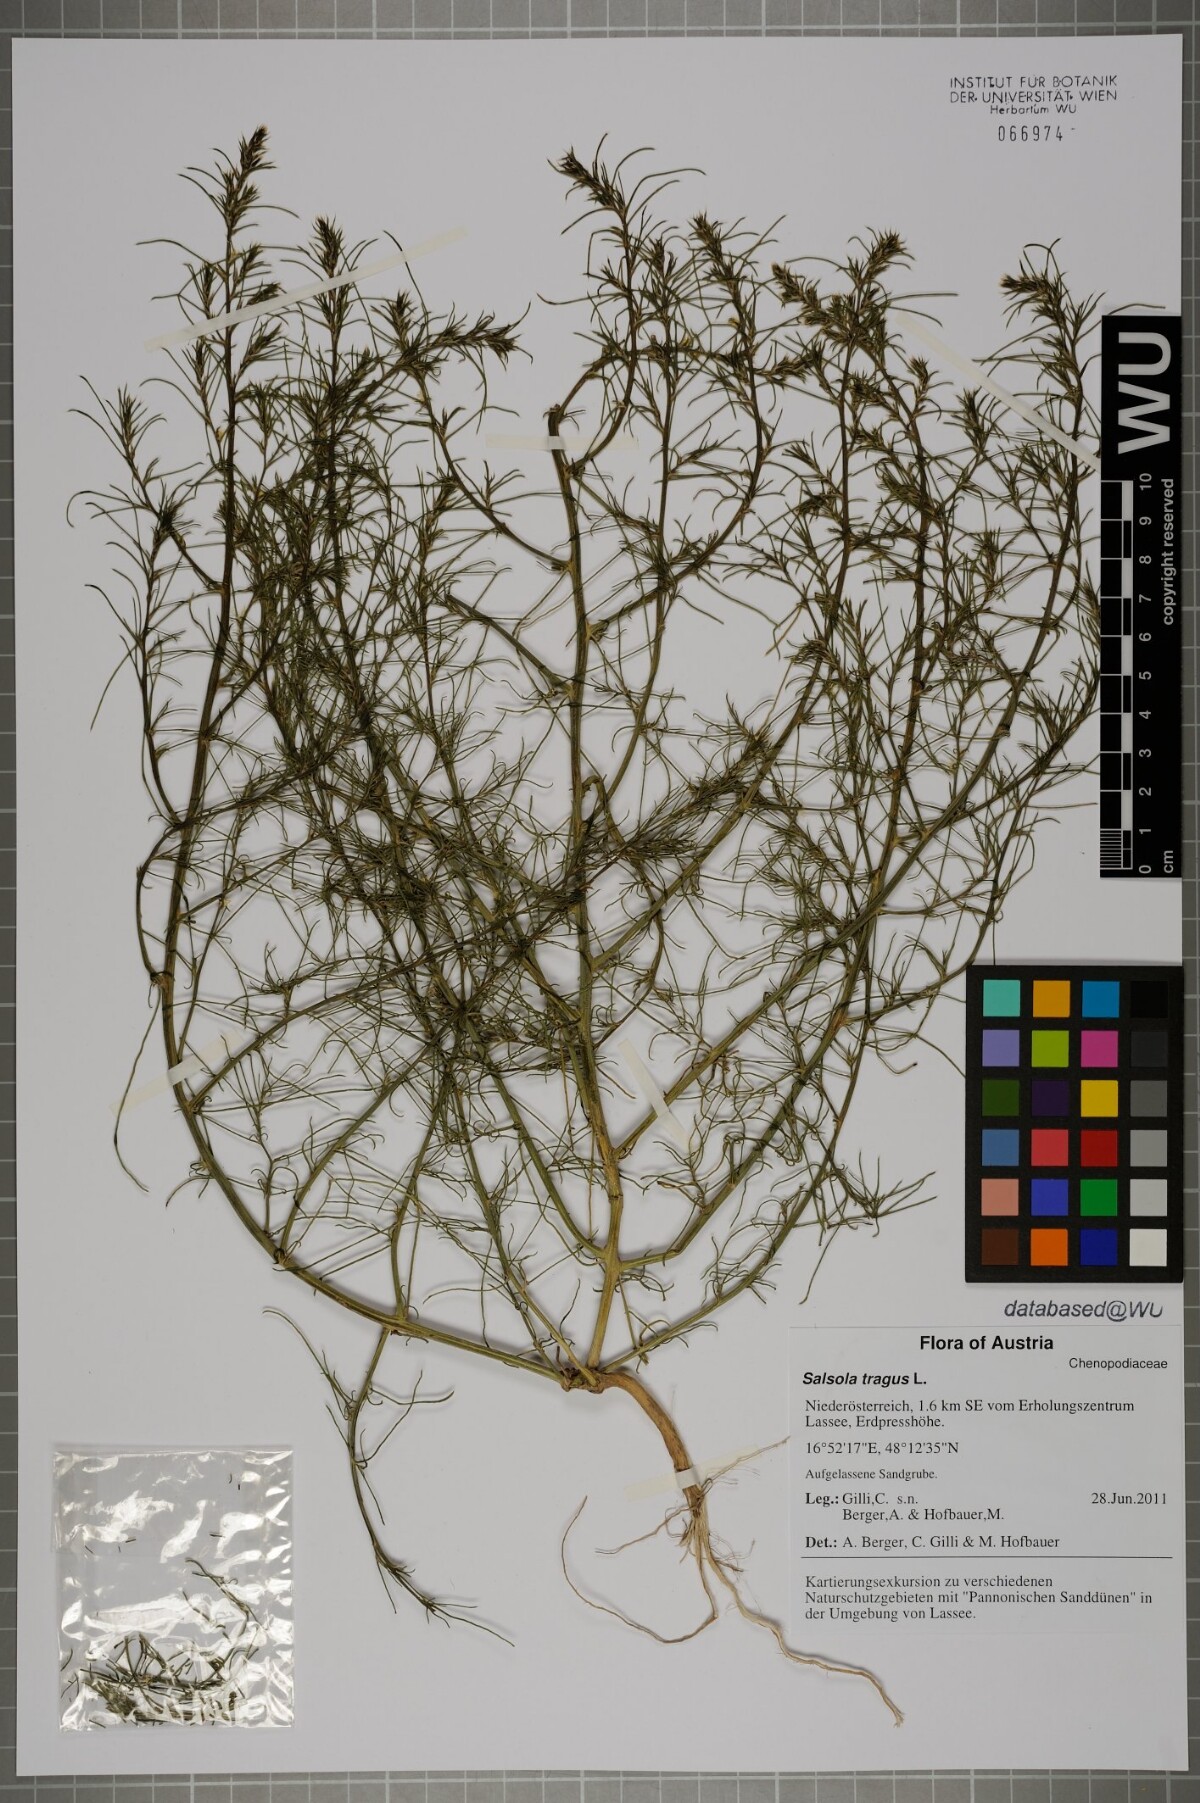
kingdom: Plantae
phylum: Tracheophyta
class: Magnoliopsida
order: Caryophyllales
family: Amaranthaceae
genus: Salsola
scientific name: Salsola tragus
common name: Prickly russian thistle
